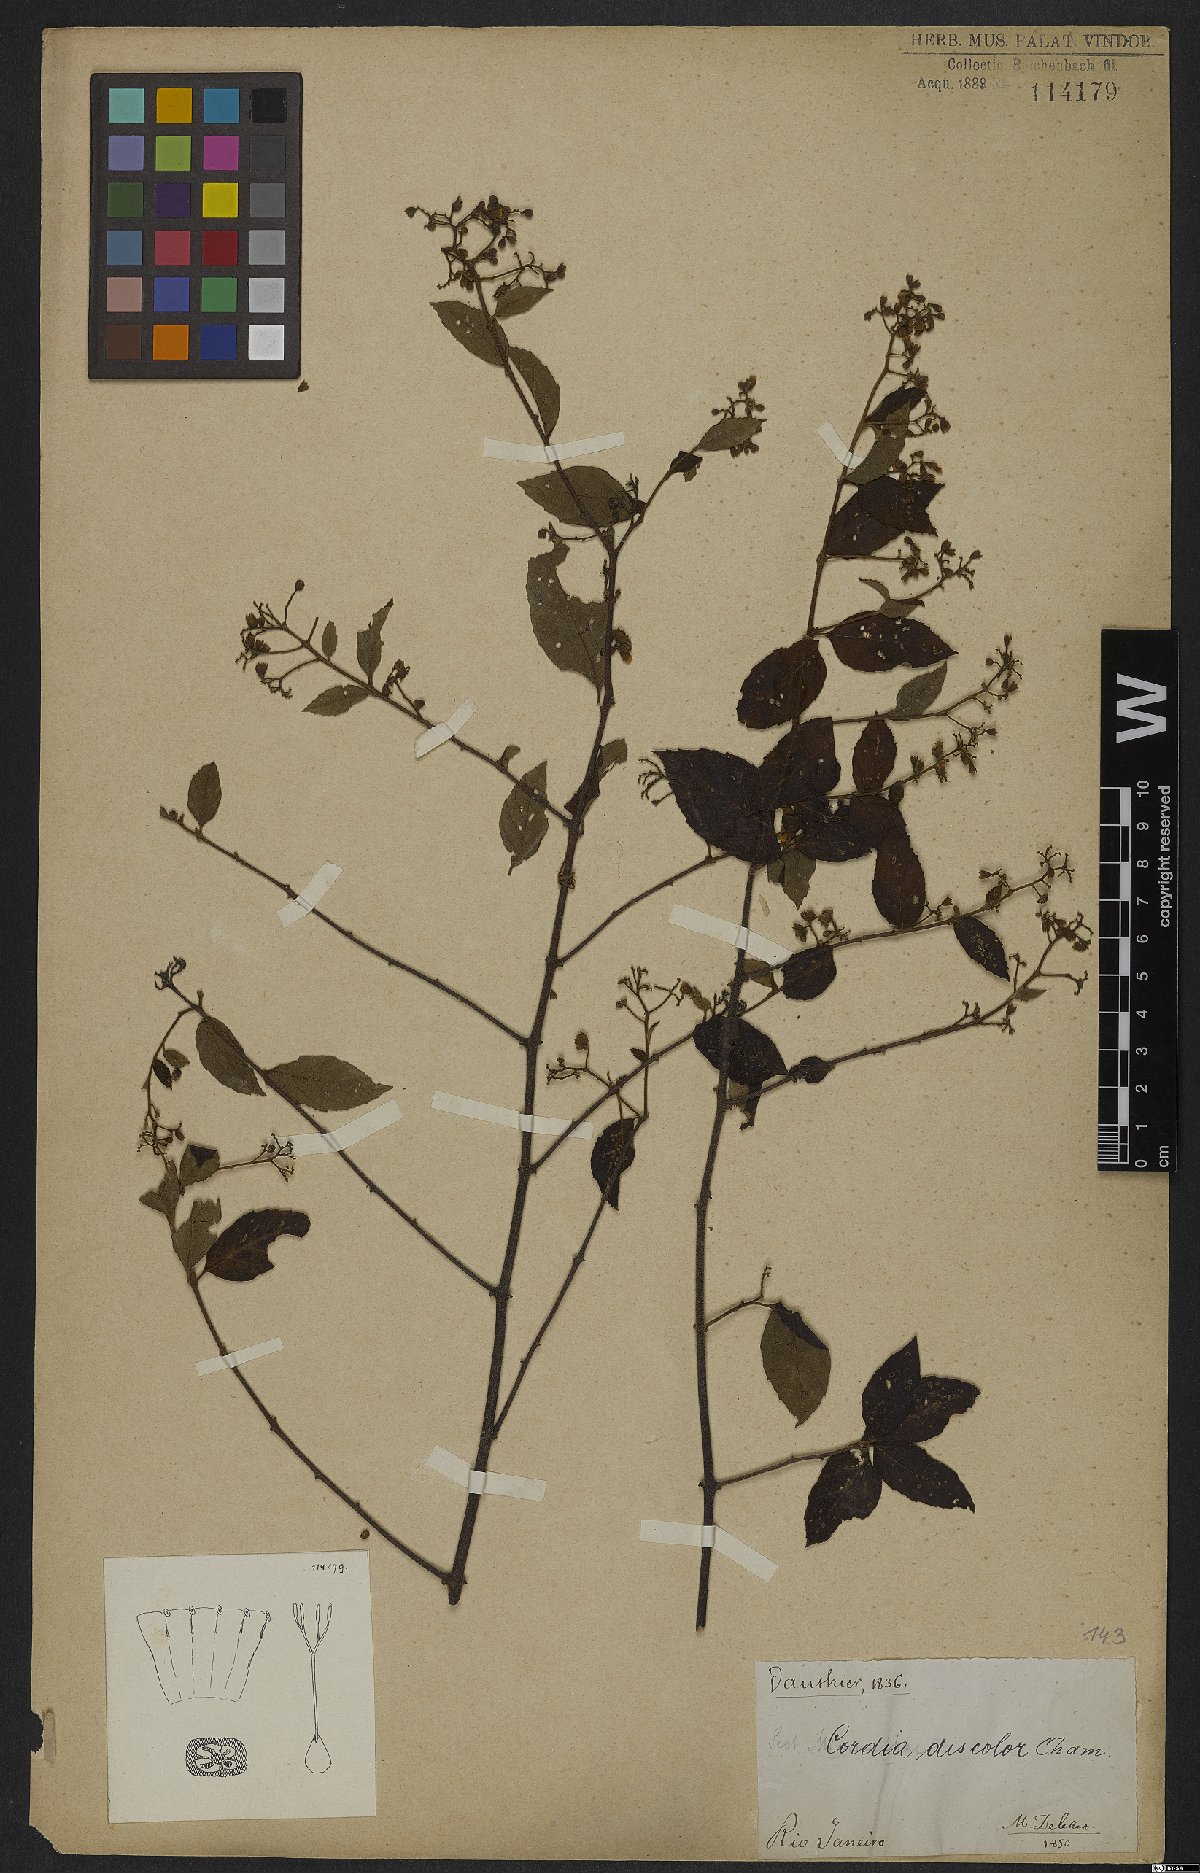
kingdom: Plantae
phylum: Tracheophyta
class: Magnoliopsida
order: Boraginales
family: Cordiaceae
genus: Varronia
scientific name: Varronia discolor
